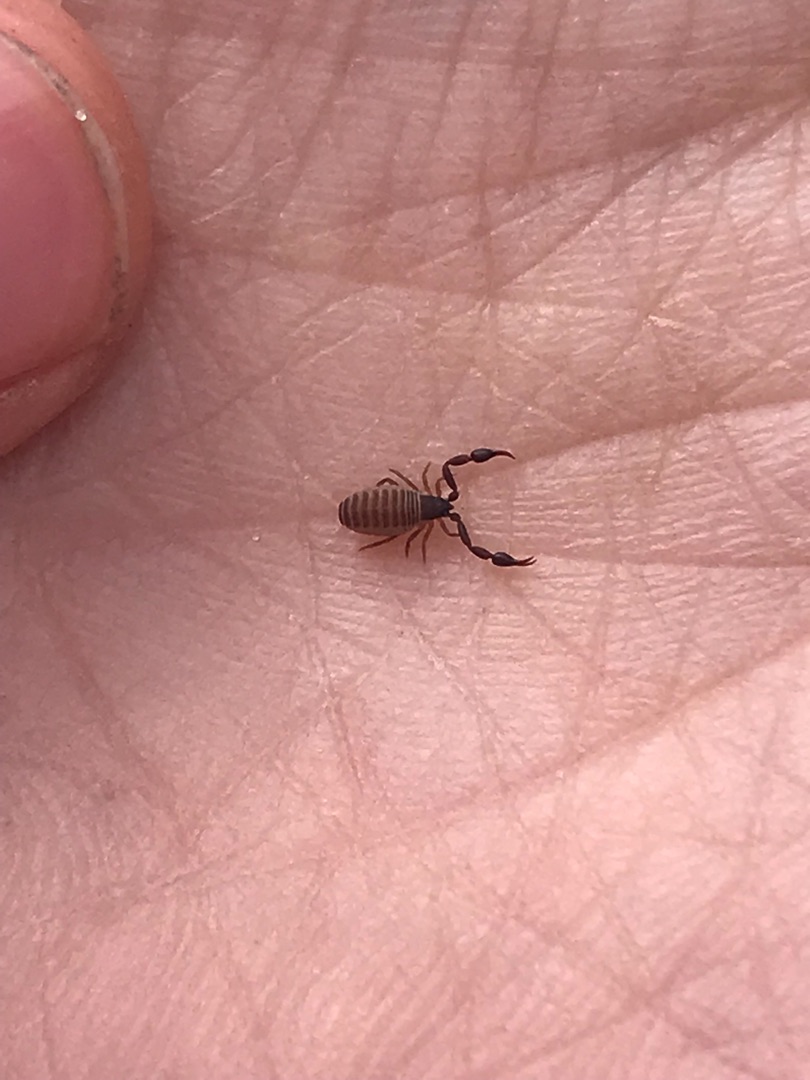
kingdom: Animalia
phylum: Arthropoda
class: Arachnida
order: Pseudoscorpiones
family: Cheliferidae
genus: Dactylochelifer
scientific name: Dactylochelifer latreillii
